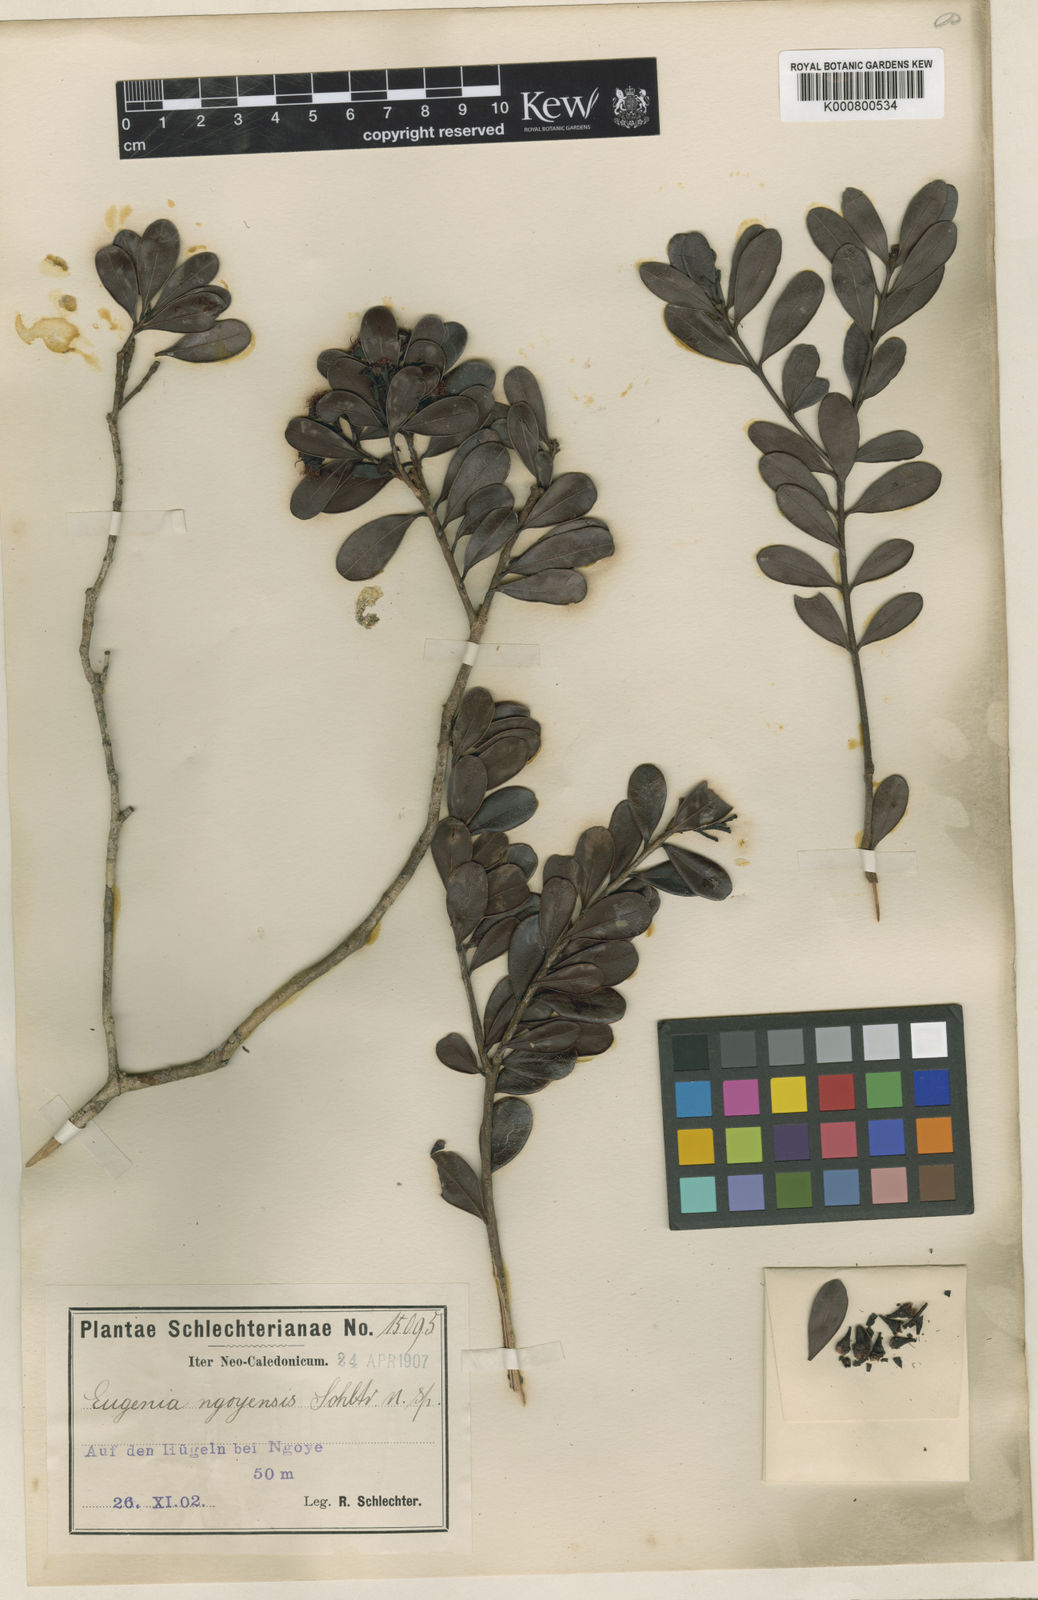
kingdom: Plantae
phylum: Tracheophyta
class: Magnoliopsida
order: Myrtales
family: Myrtaceae
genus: Syzygium
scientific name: Syzygium ngoyense
